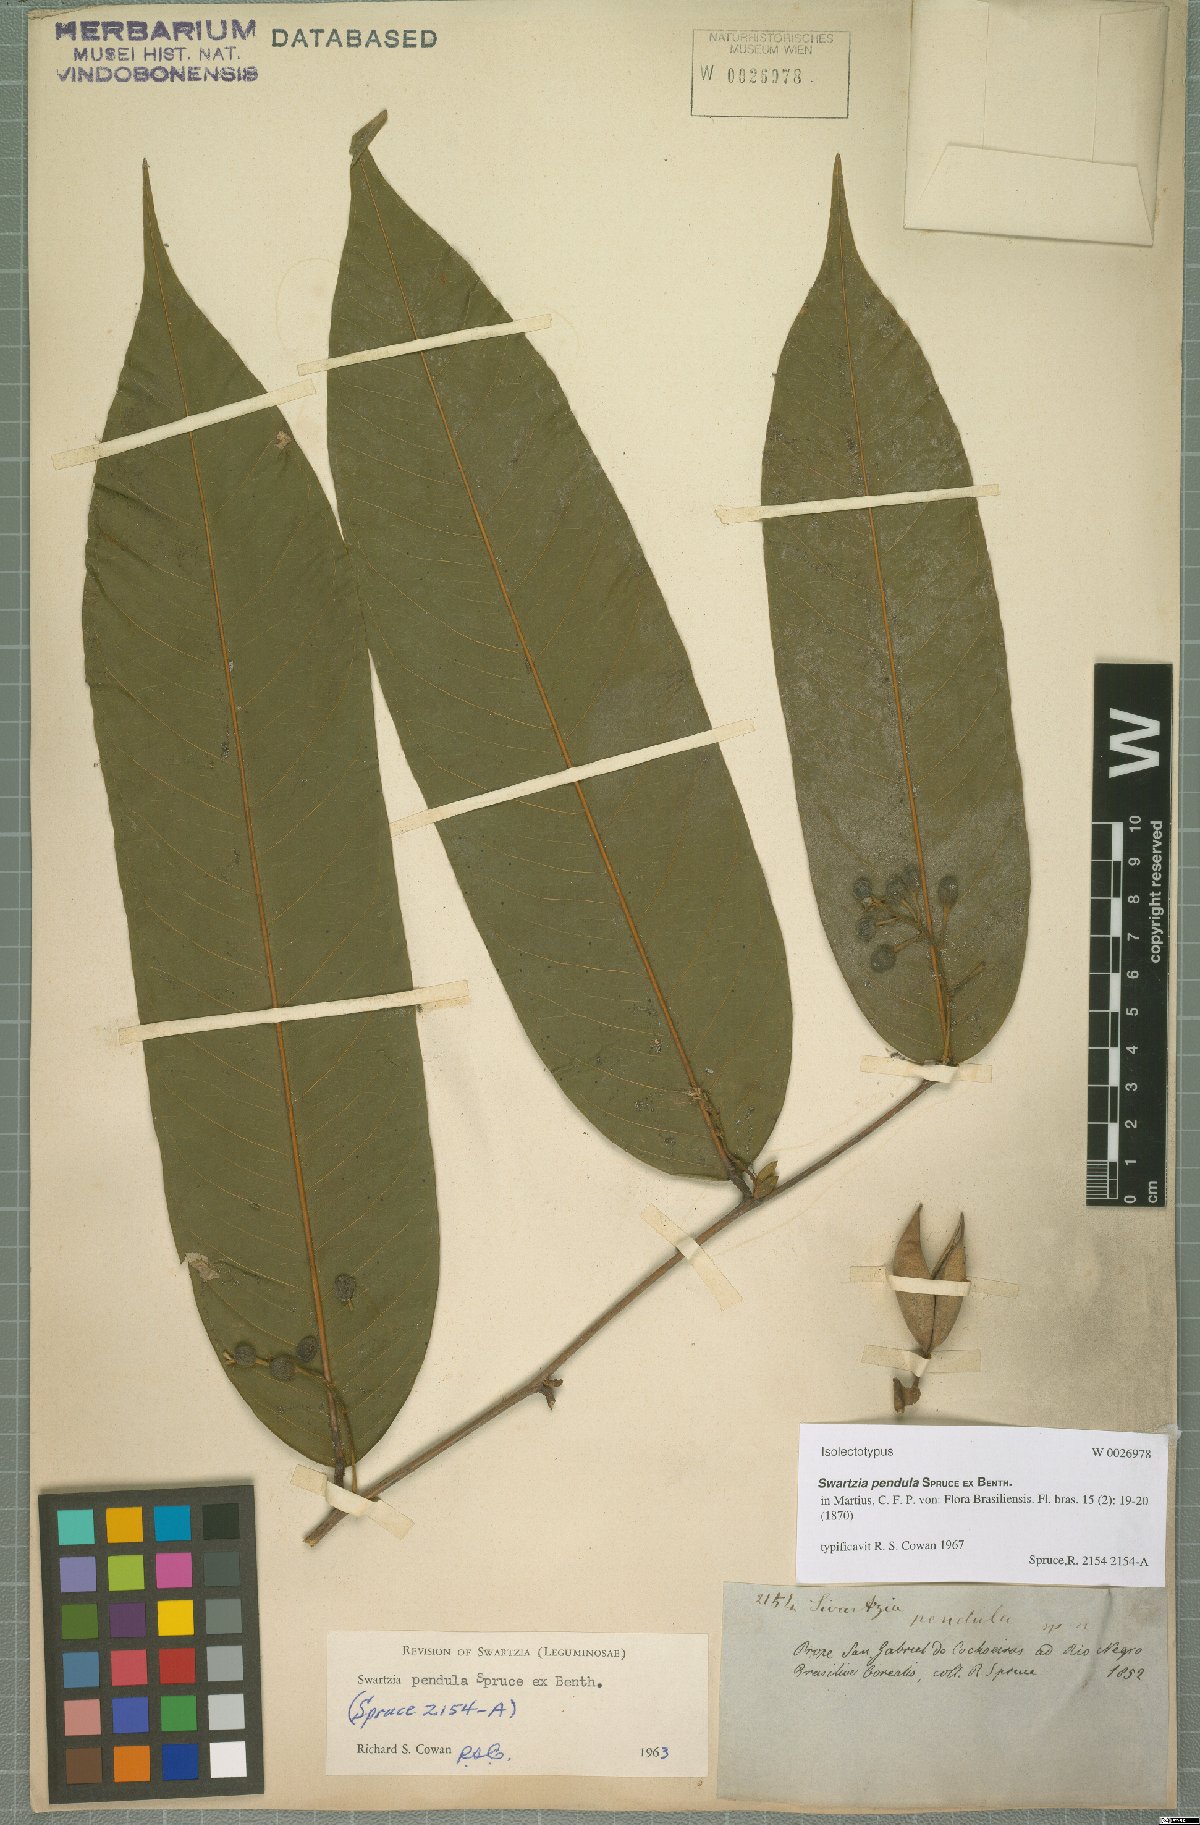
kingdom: Plantae
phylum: Tracheophyta
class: Magnoliopsida
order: Fabales
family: Fabaceae
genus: Swartzia
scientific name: Swartzia pendula
